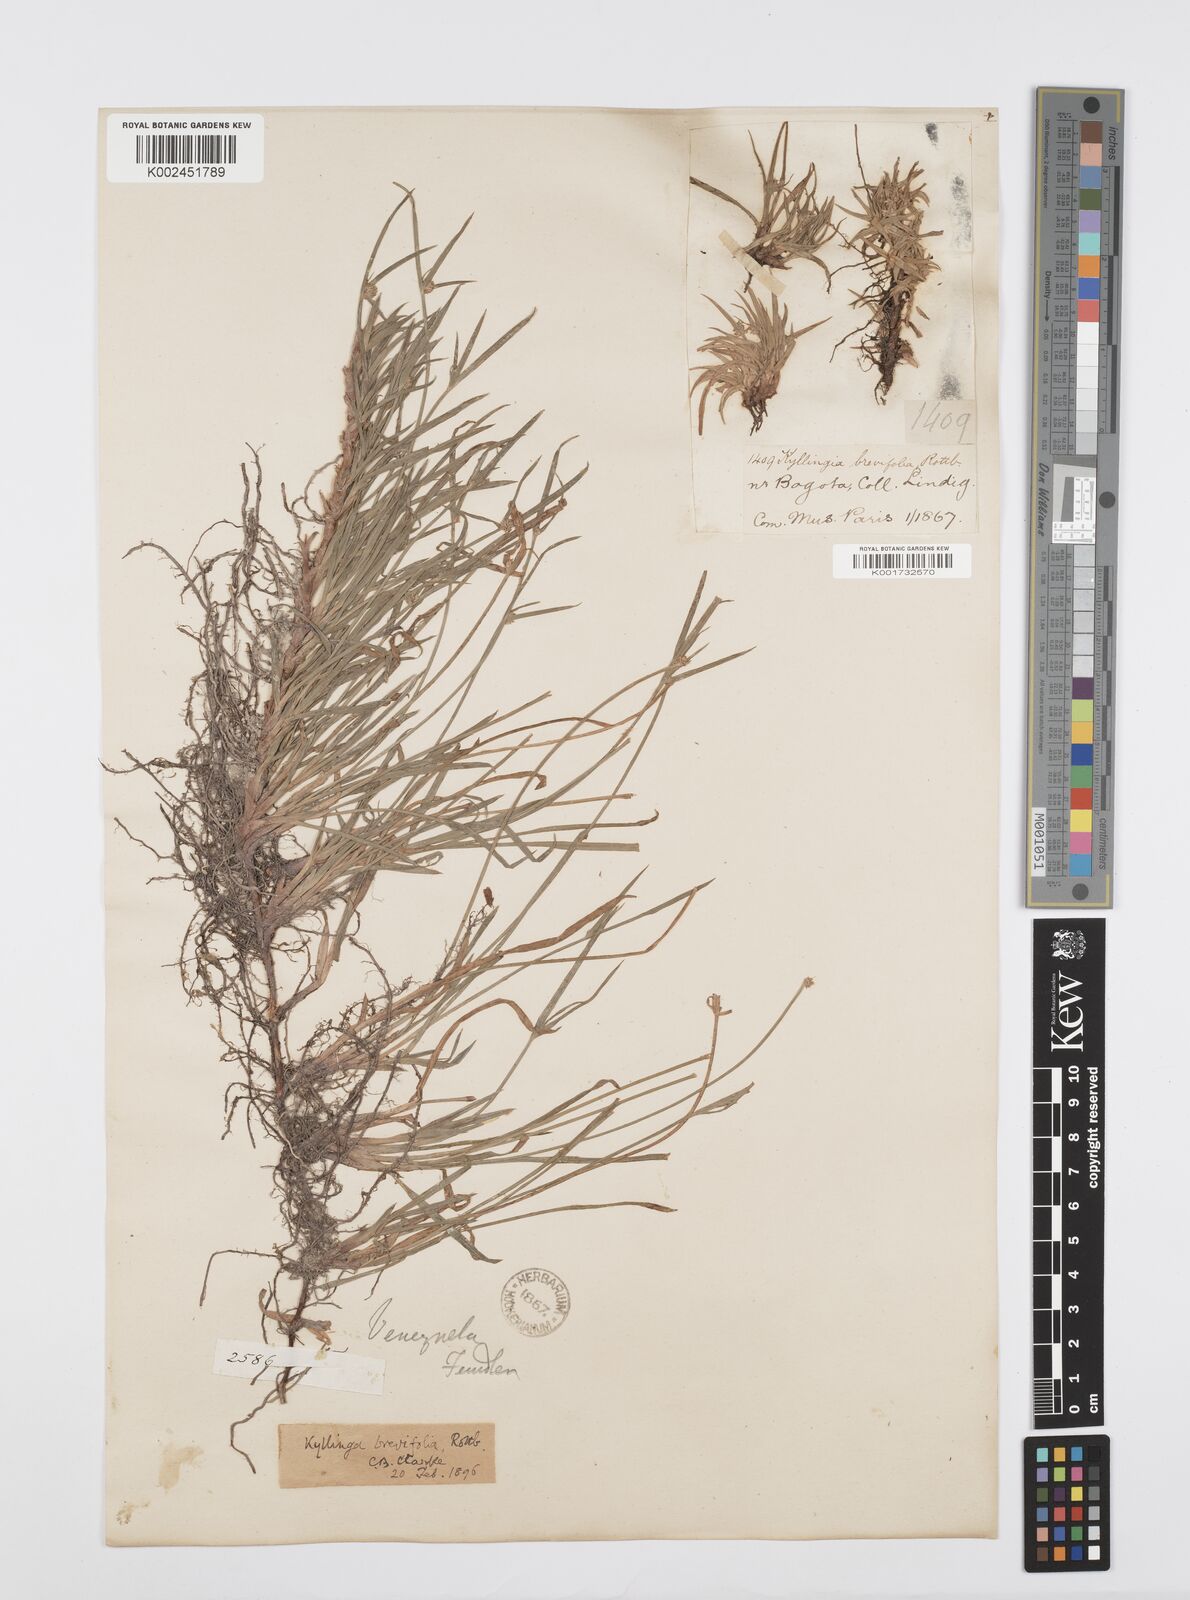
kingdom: Plantae
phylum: Tracheophyta
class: Liliopsida
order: Poales
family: Cyperaceae
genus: Cyperus
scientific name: Cyperus brevifolius
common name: Globe kyllinga
